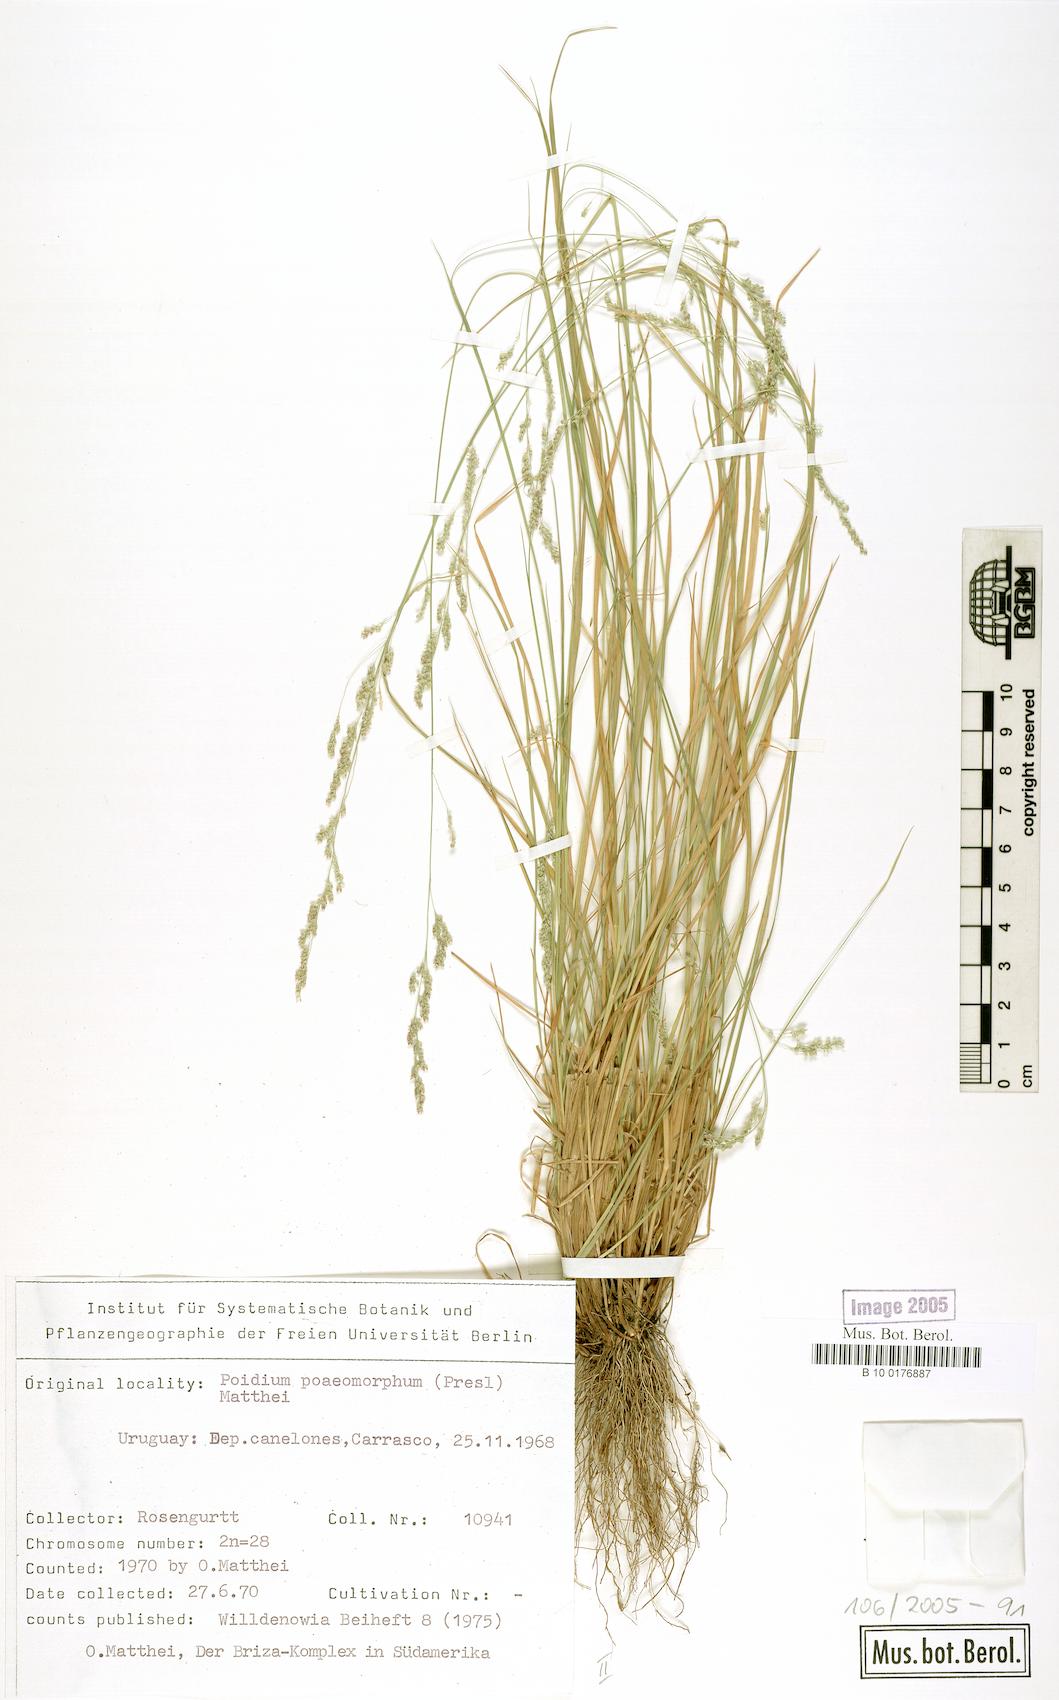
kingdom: Plantae
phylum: Tracheophyta
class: Liliopsida
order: Poales
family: Poaceae
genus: Chascolytrum
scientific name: Chascolytrum poomorphum
